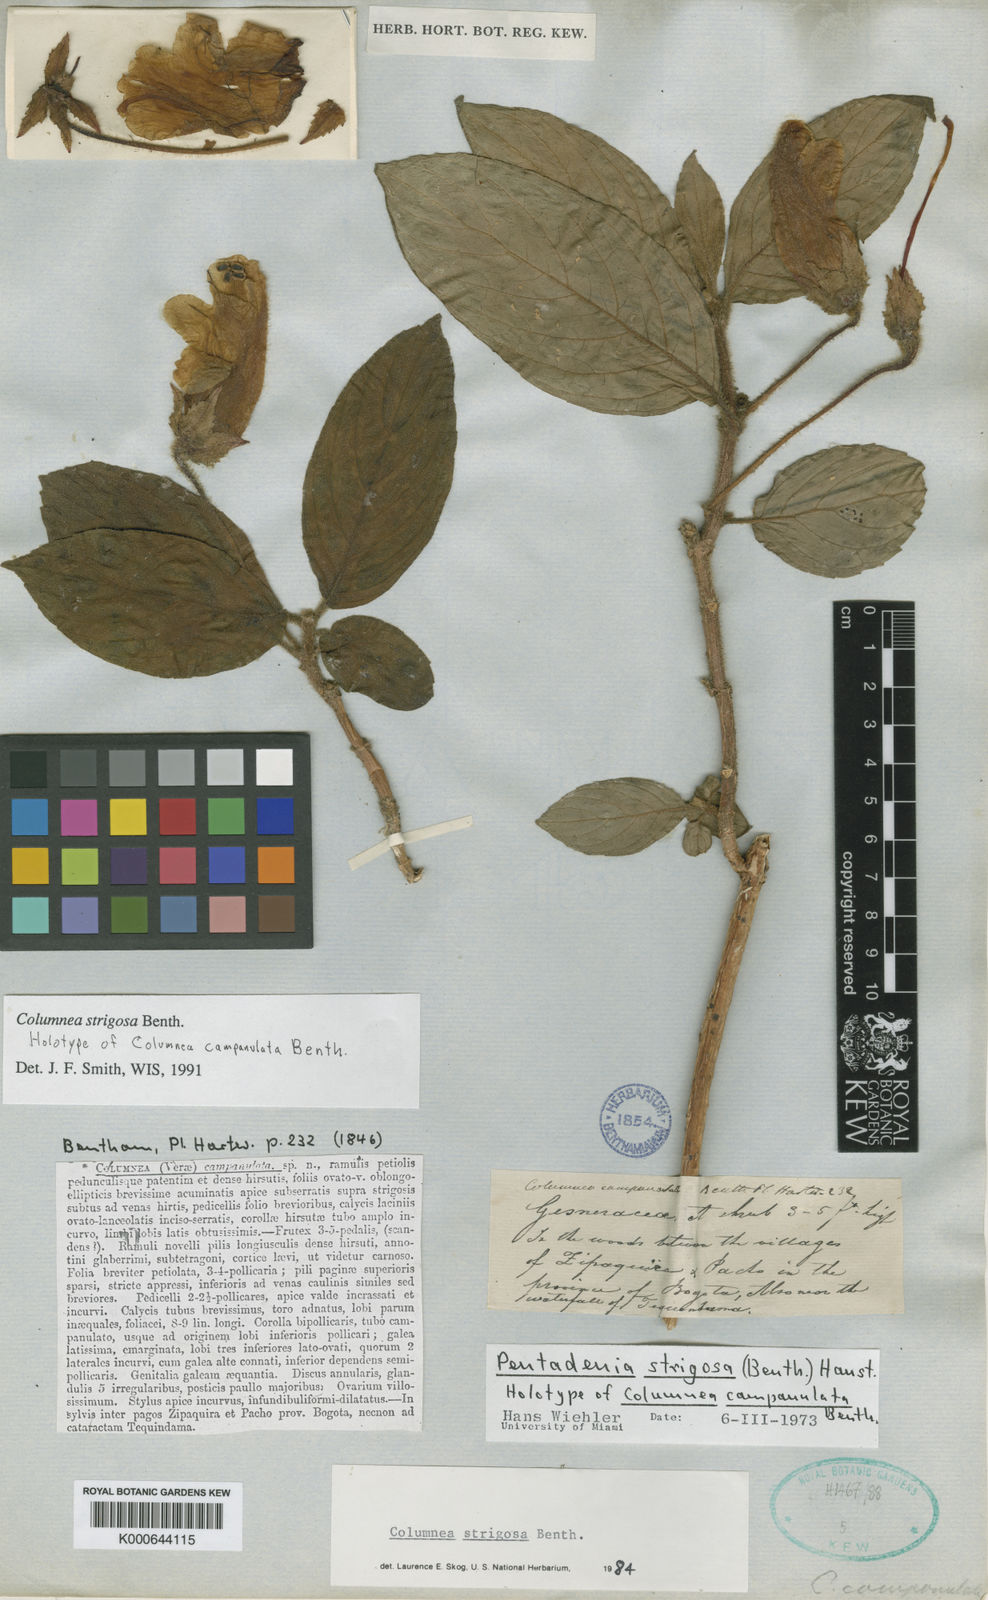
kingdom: Plantae
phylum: Tracheophyta
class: Magnoliopsida
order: Lamiales
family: Gesneriaceae
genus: Columnea
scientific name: Columnea strigosa
